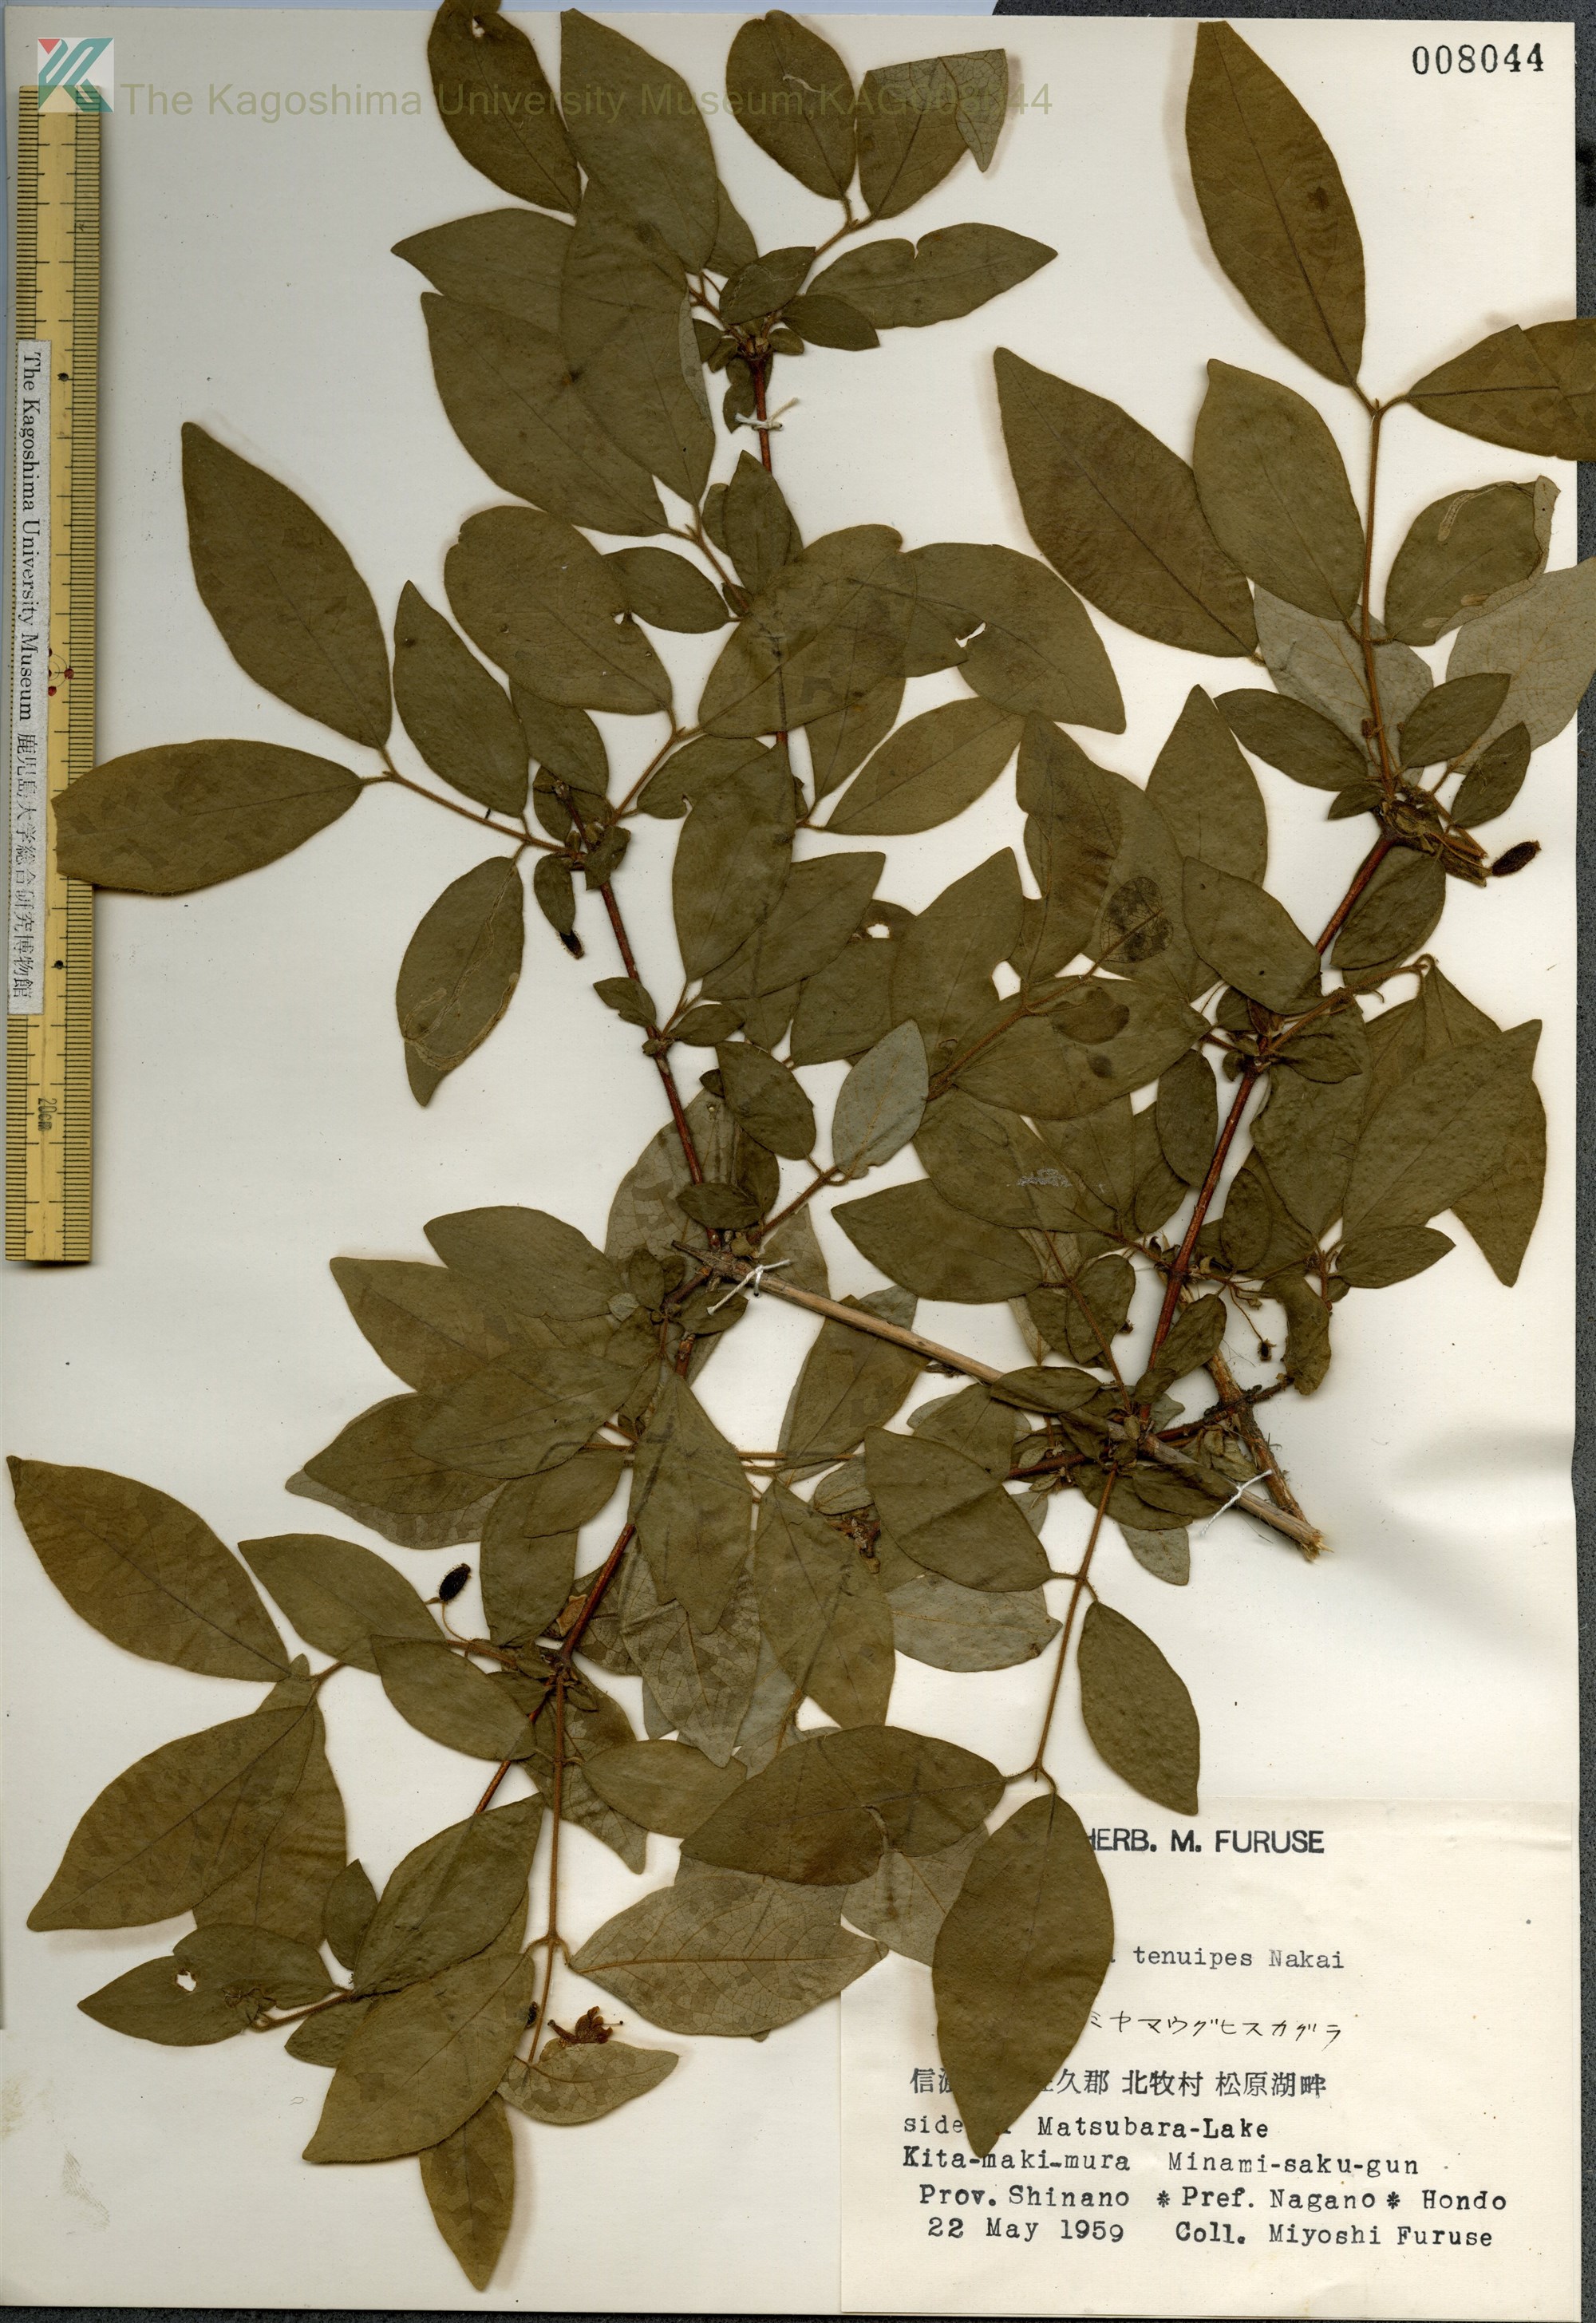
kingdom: Plantae
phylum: Tracheophyta
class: Magnoliopsida
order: Dipsacales
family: Caprifoliaceae
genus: Lonicera
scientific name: Lonicera gracilipes
